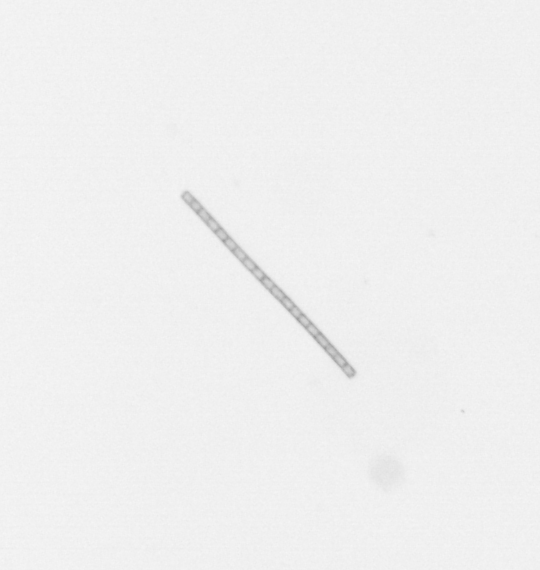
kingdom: Chromista
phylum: Ochrophyta
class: Bacillariophyceae
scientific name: Bacillariophyceae
